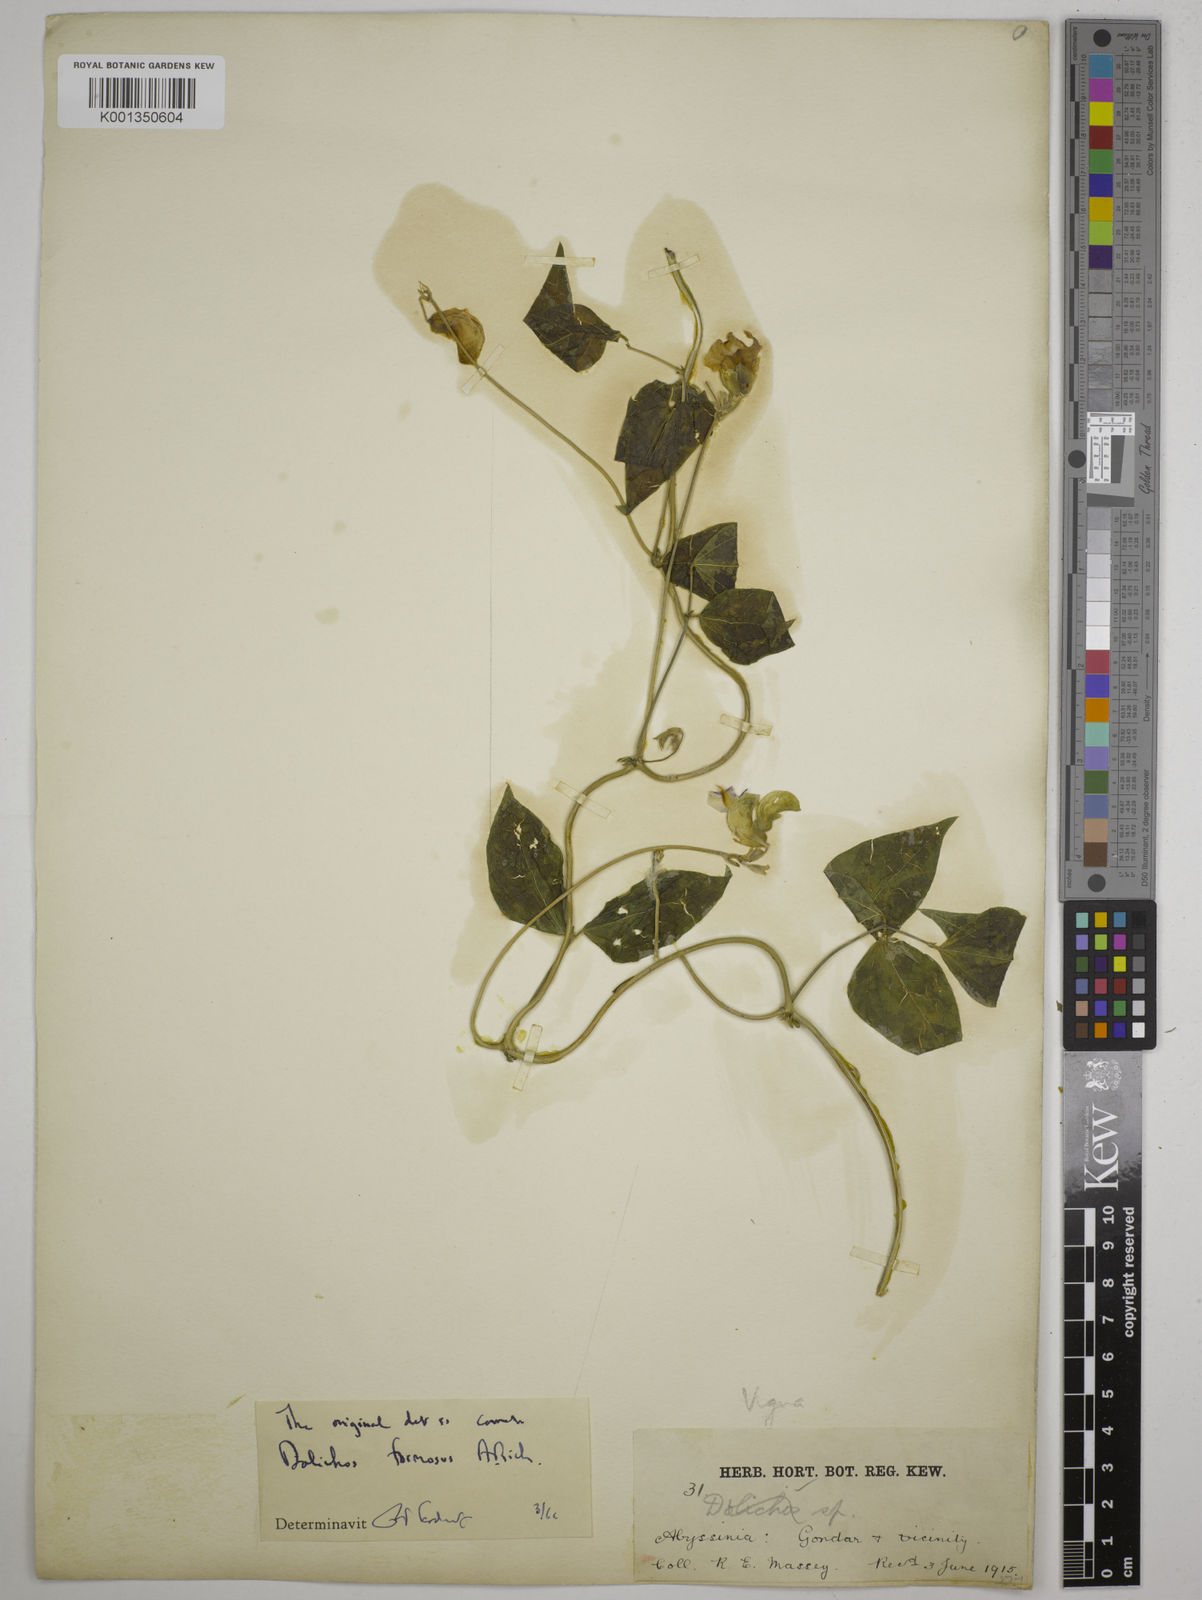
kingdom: Plantae
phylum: Tracheophyta
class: Magnoliopsida
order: Fabales
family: Fabaceae
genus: Dolichos
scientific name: Dolichos
